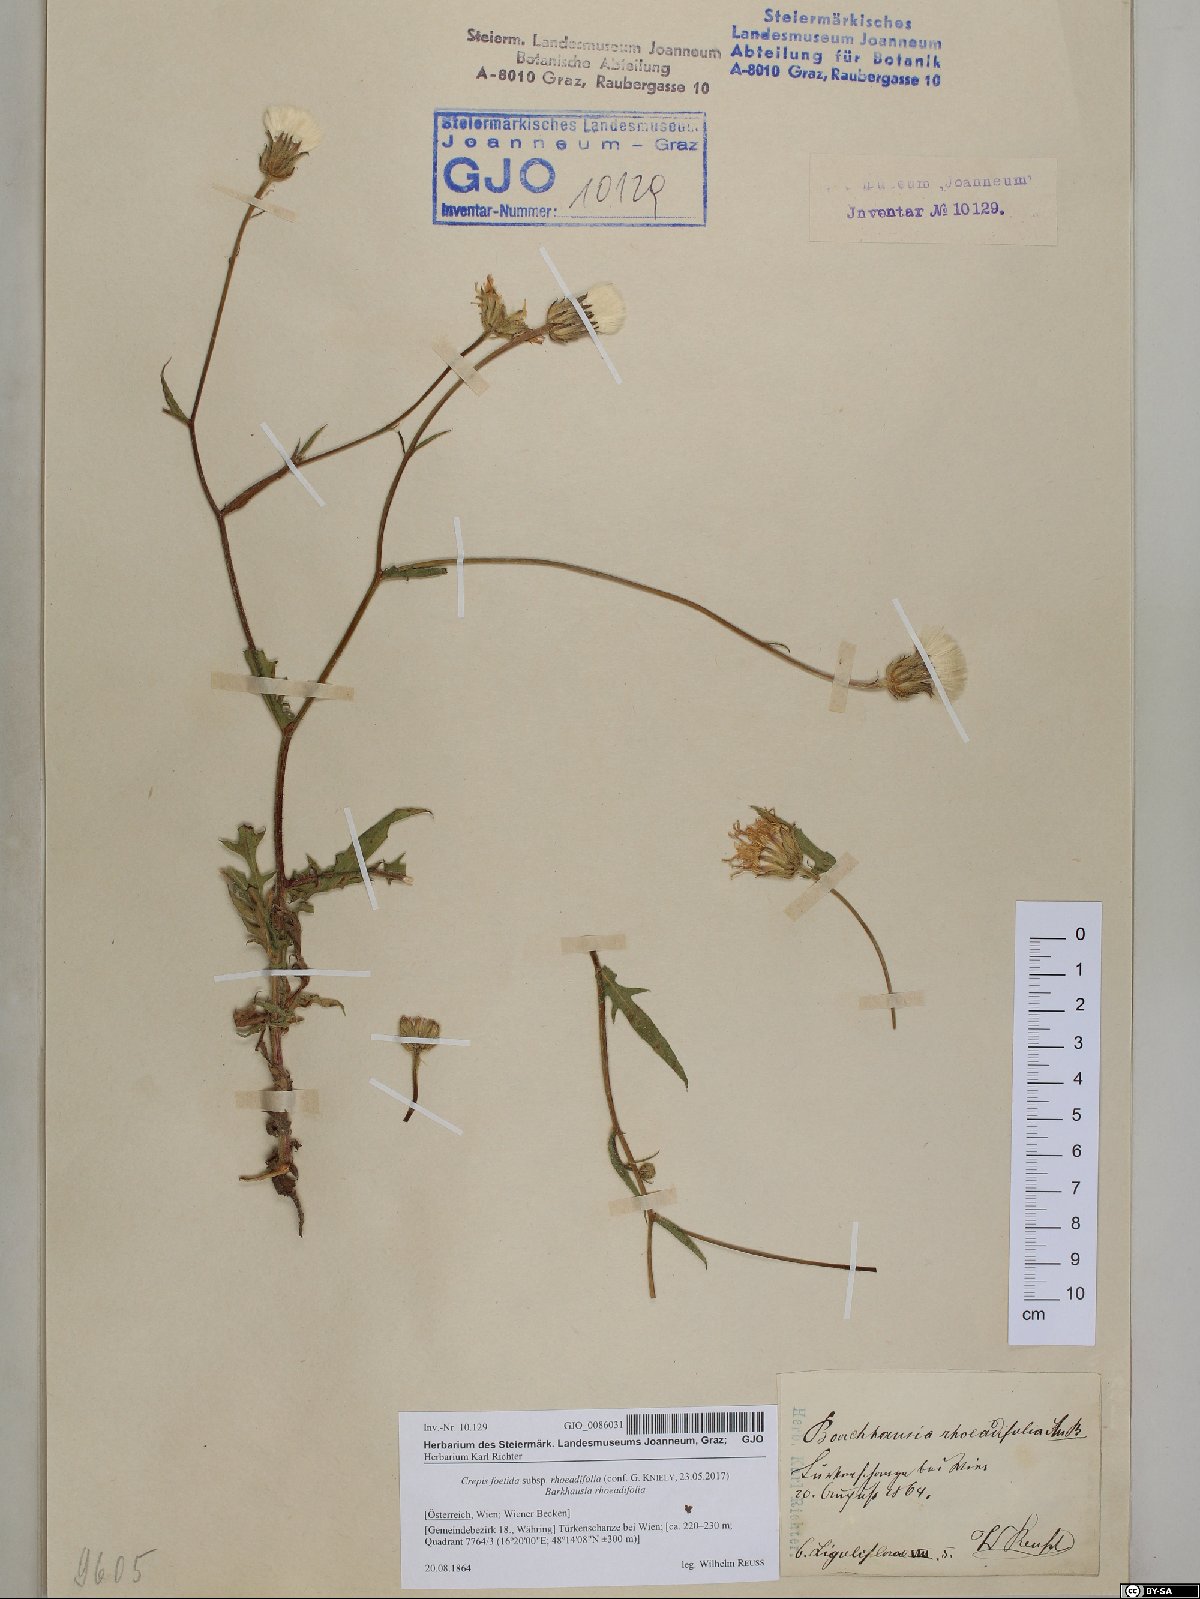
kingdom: Plantae
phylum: Tracheophyta
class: Magnoliopsida
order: Asterales
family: Asteraceae
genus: Crepis
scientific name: Crepis foetida
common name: Stinking hawk's-beard
